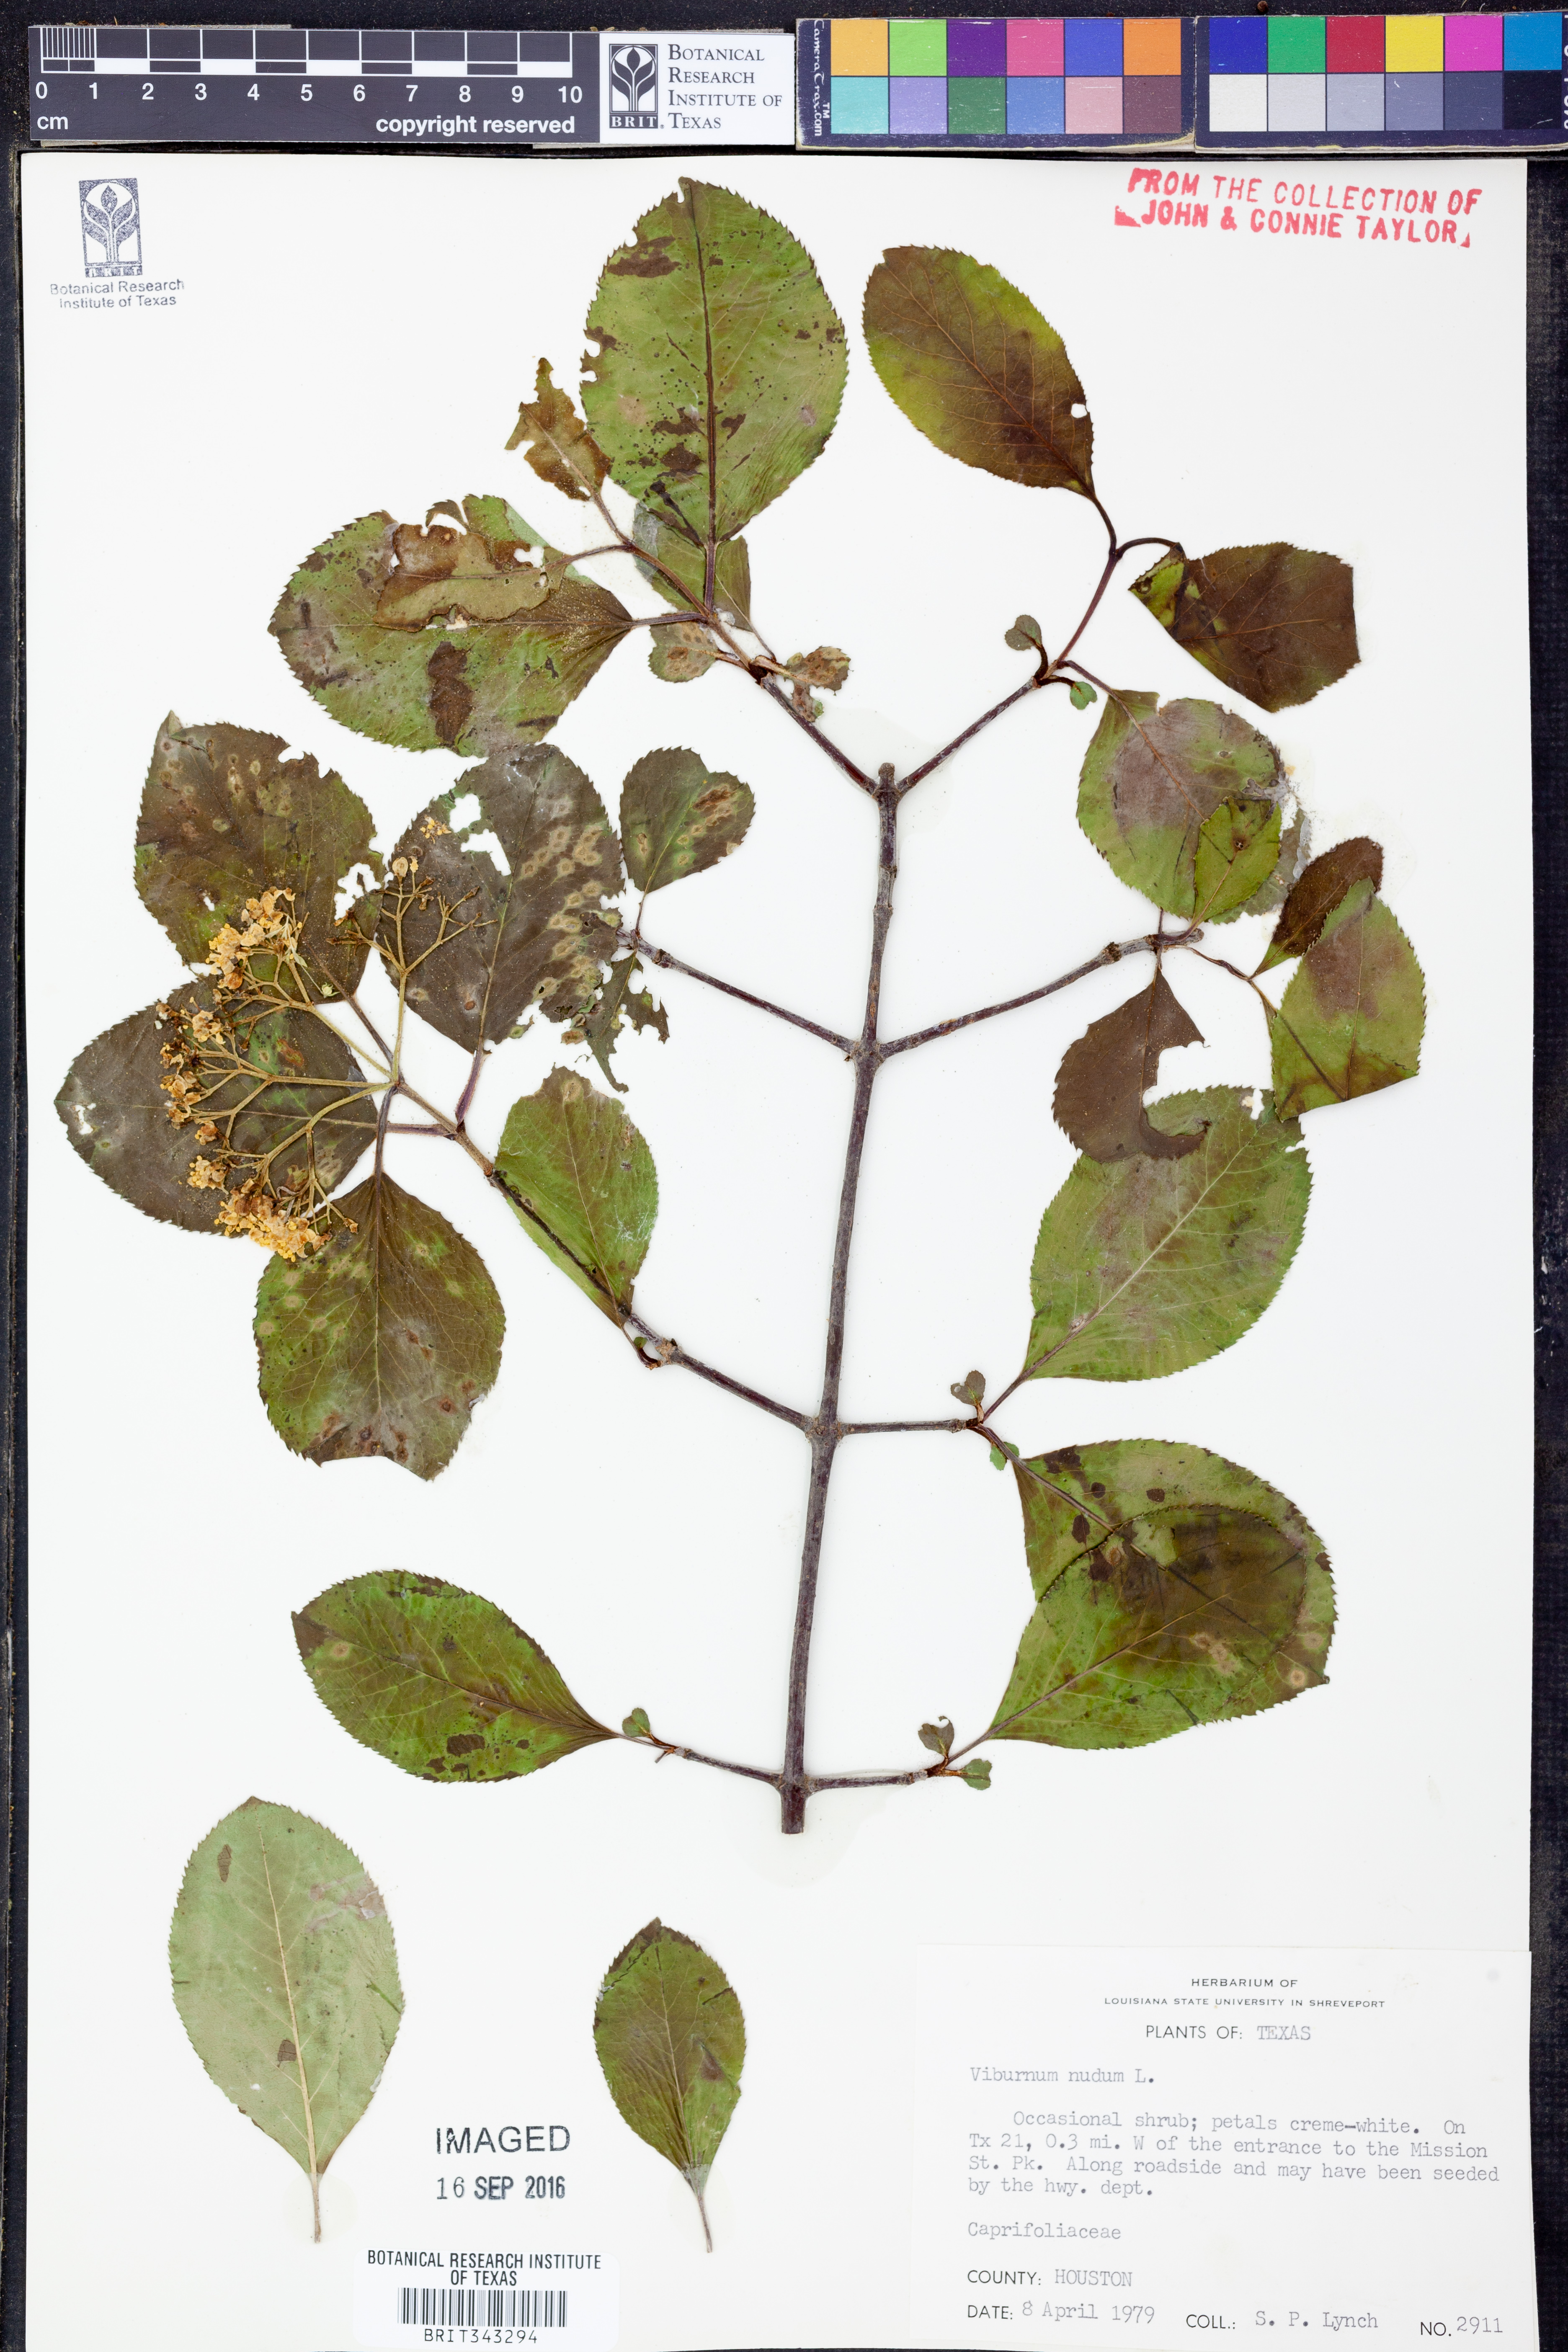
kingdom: Plantae
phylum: Tracheophyta
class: Magnoliopsida
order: Dipsacales
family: Viburnaceae
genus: Viburnum
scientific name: Viburnum nudum
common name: Possum haw
